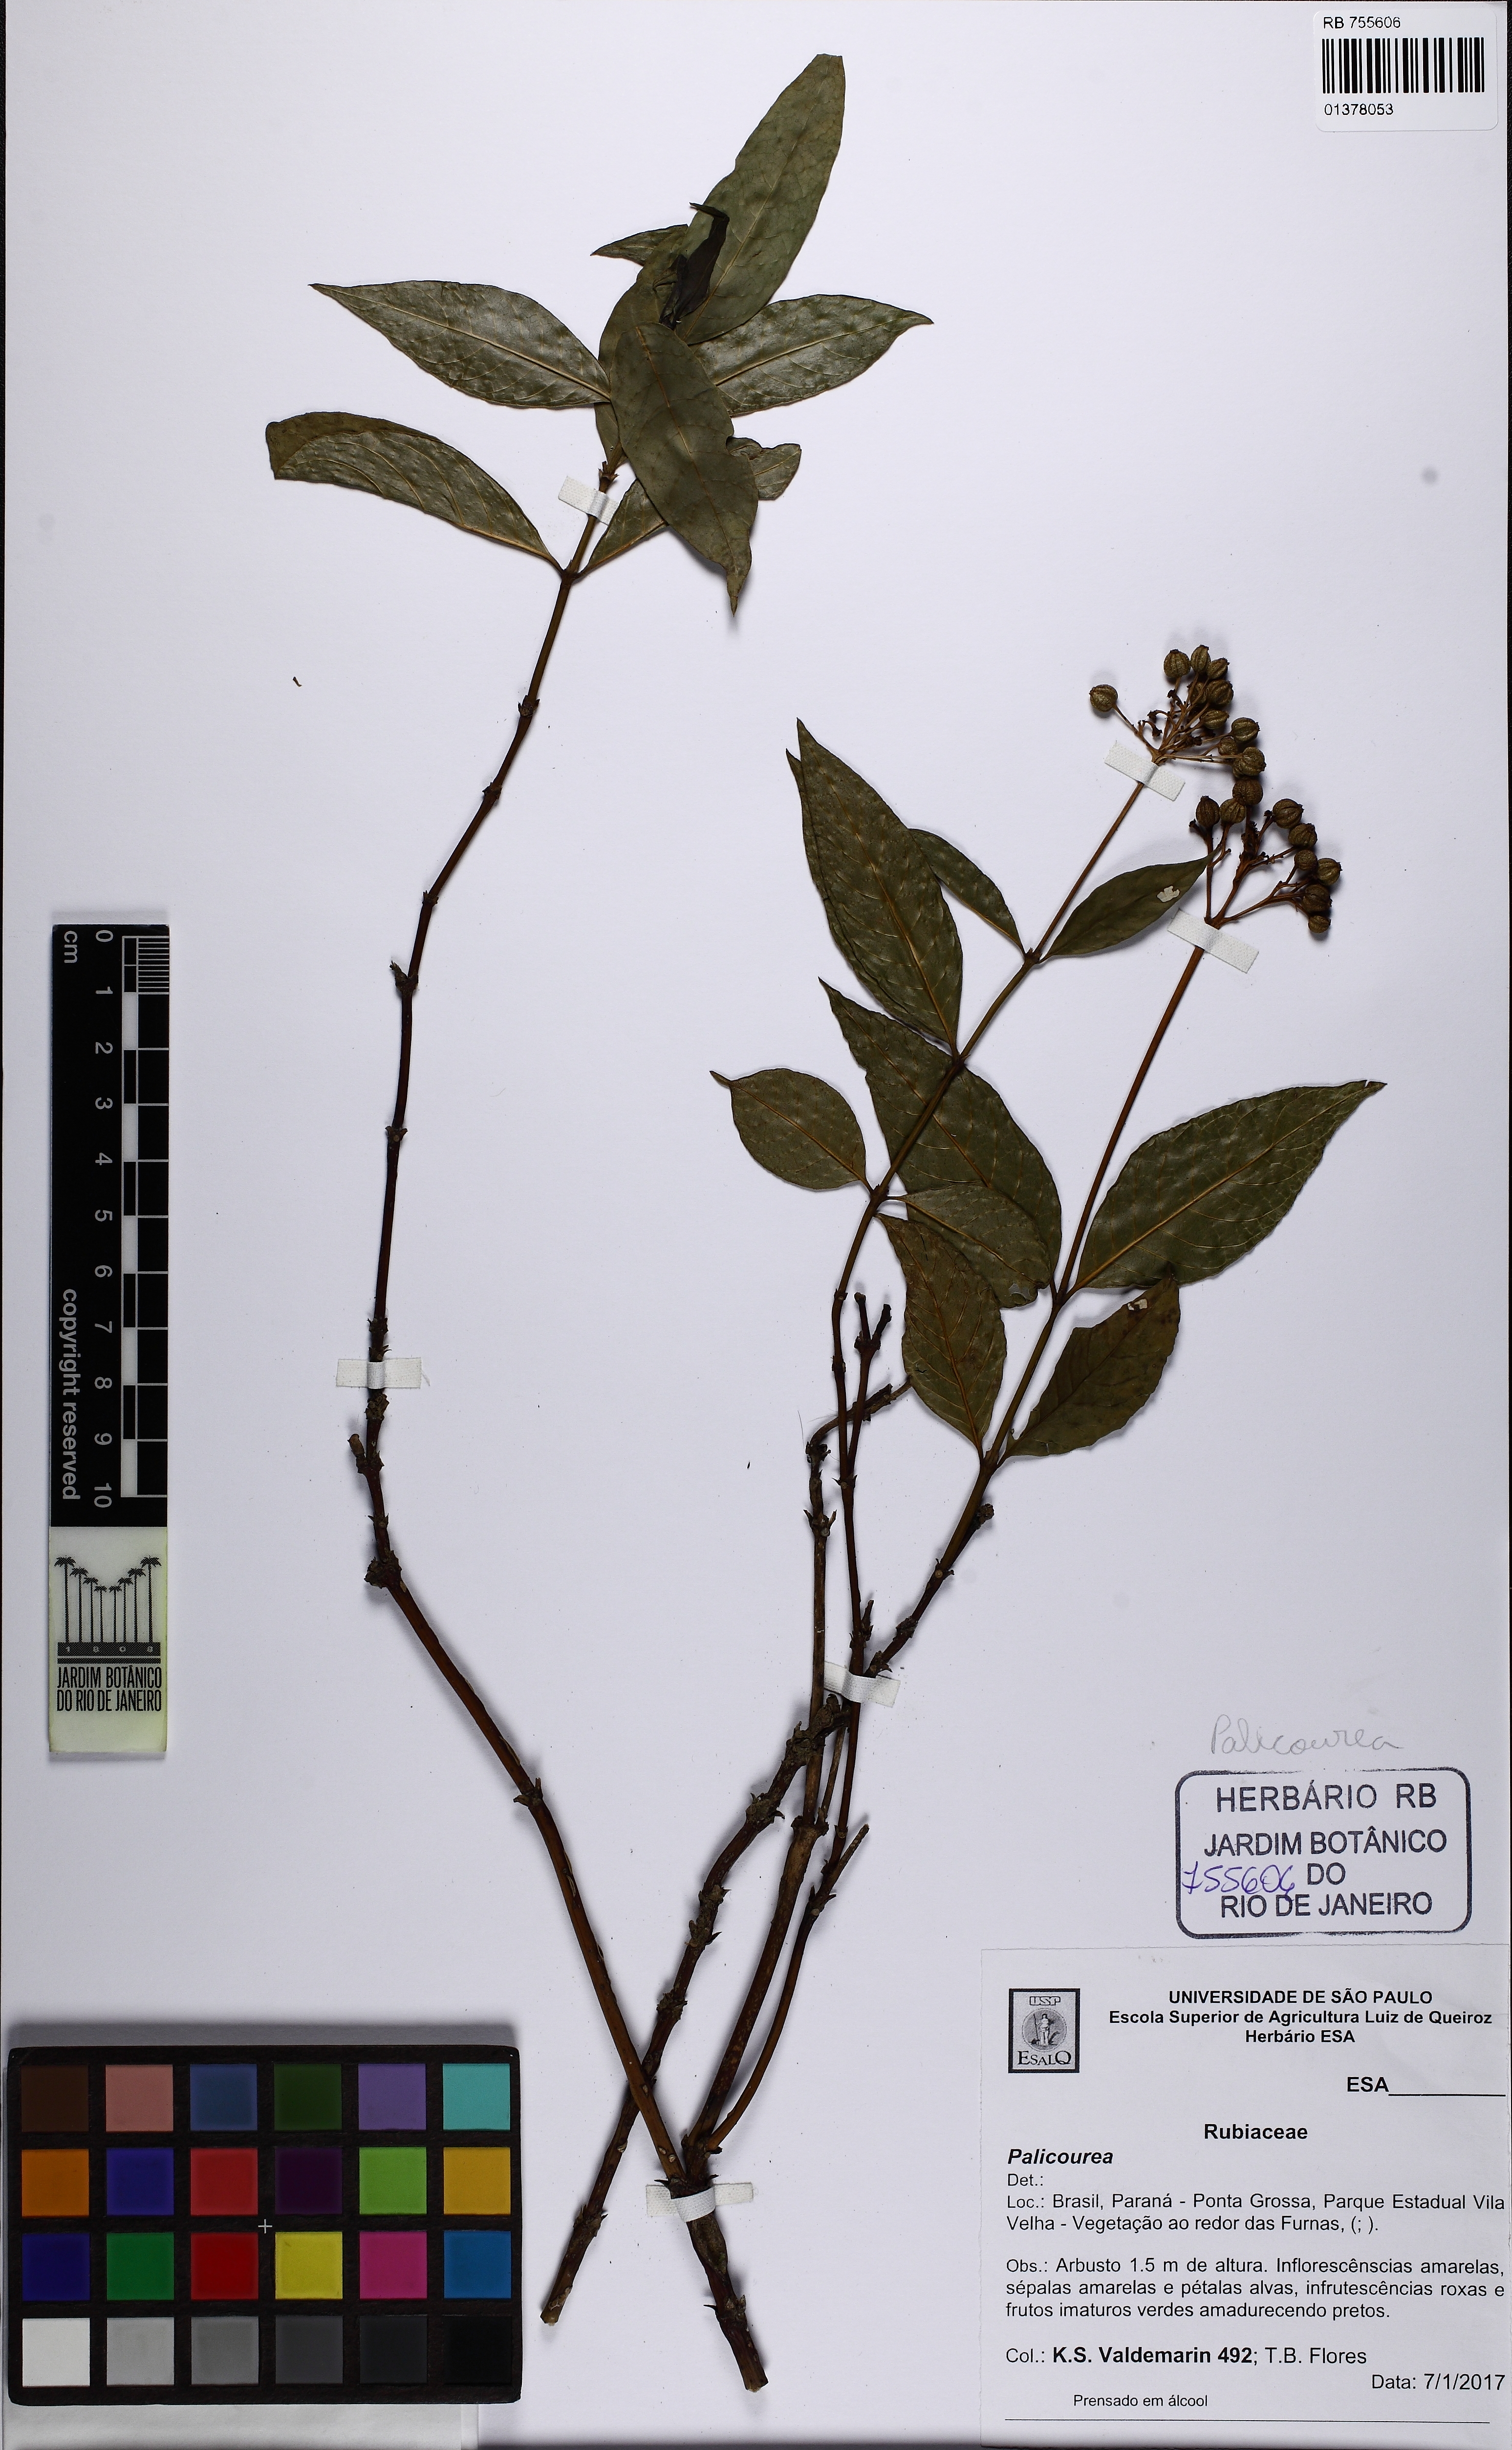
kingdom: Plantae
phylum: Tracheophyta
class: Magnoliopsida
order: Gentianales
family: Rubiaceae
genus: Palicourea
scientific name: Palicourea
